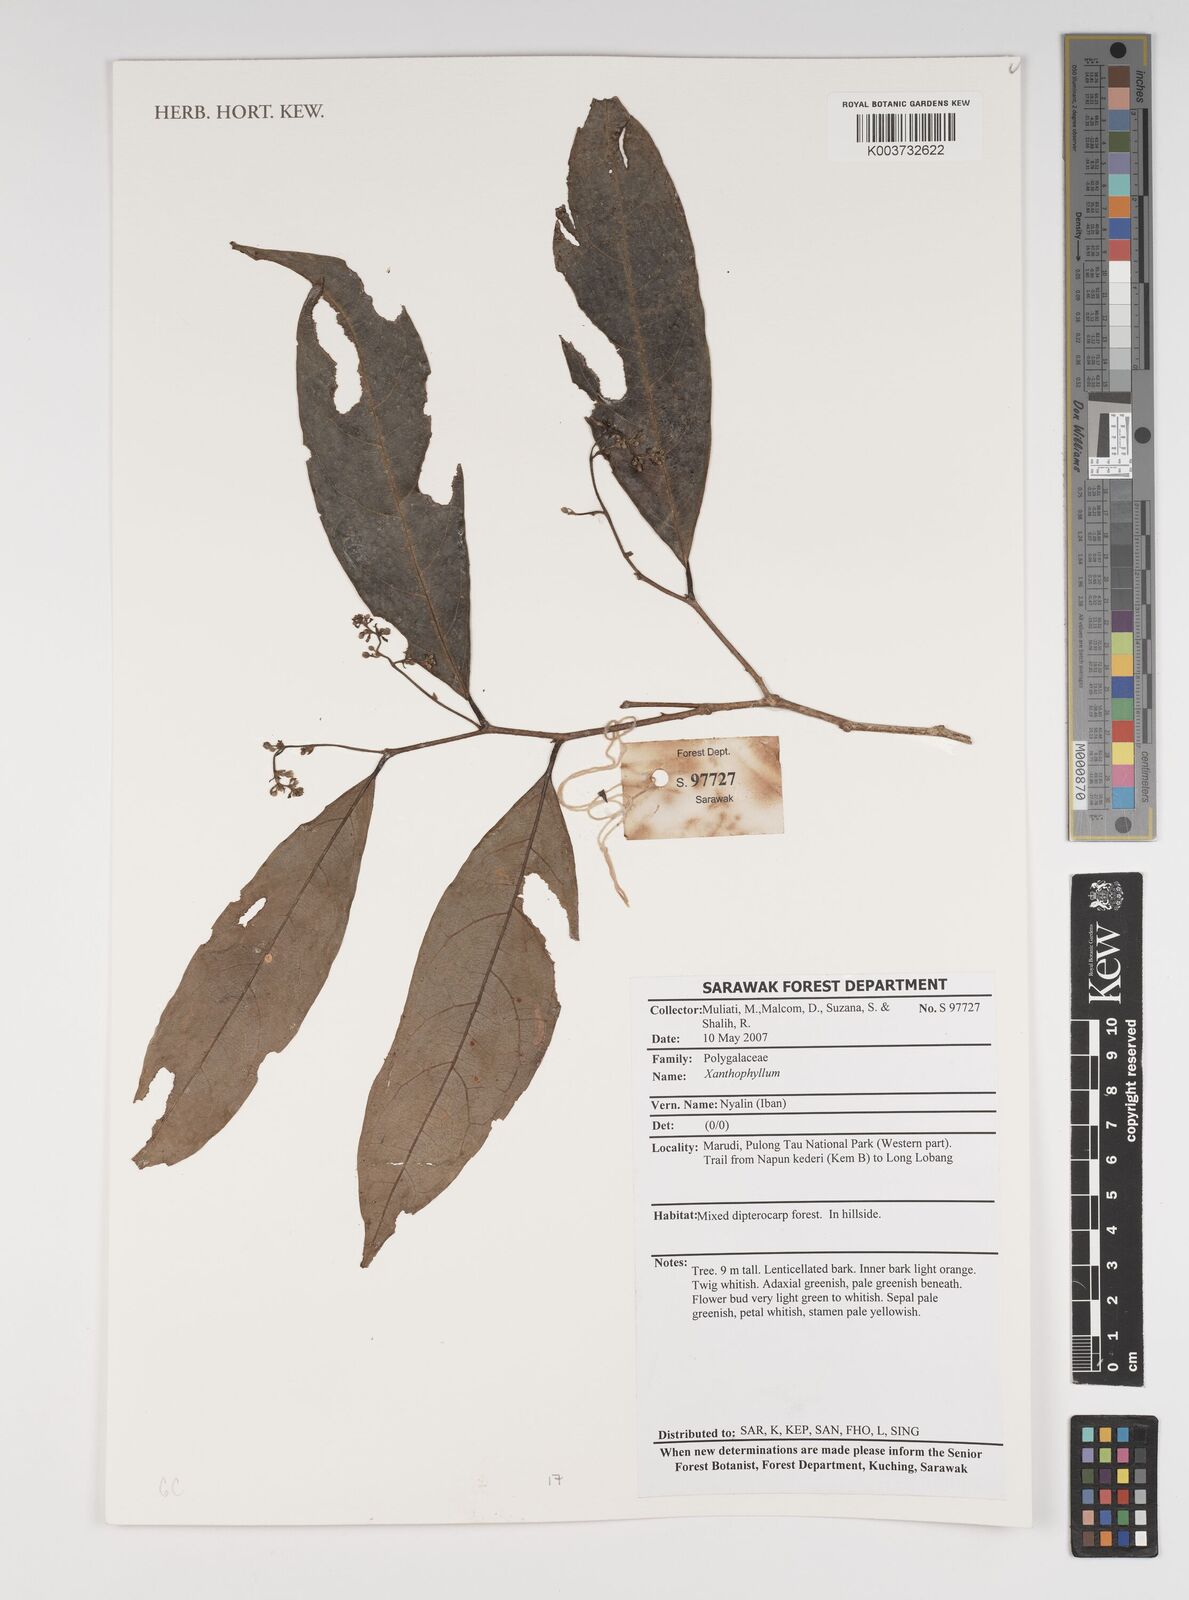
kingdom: Plantae
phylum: Tracheophyta
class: Magnoliopsida
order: Fabales
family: Polygalaceae
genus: Xanthophyllum
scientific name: Xanthophyllum
